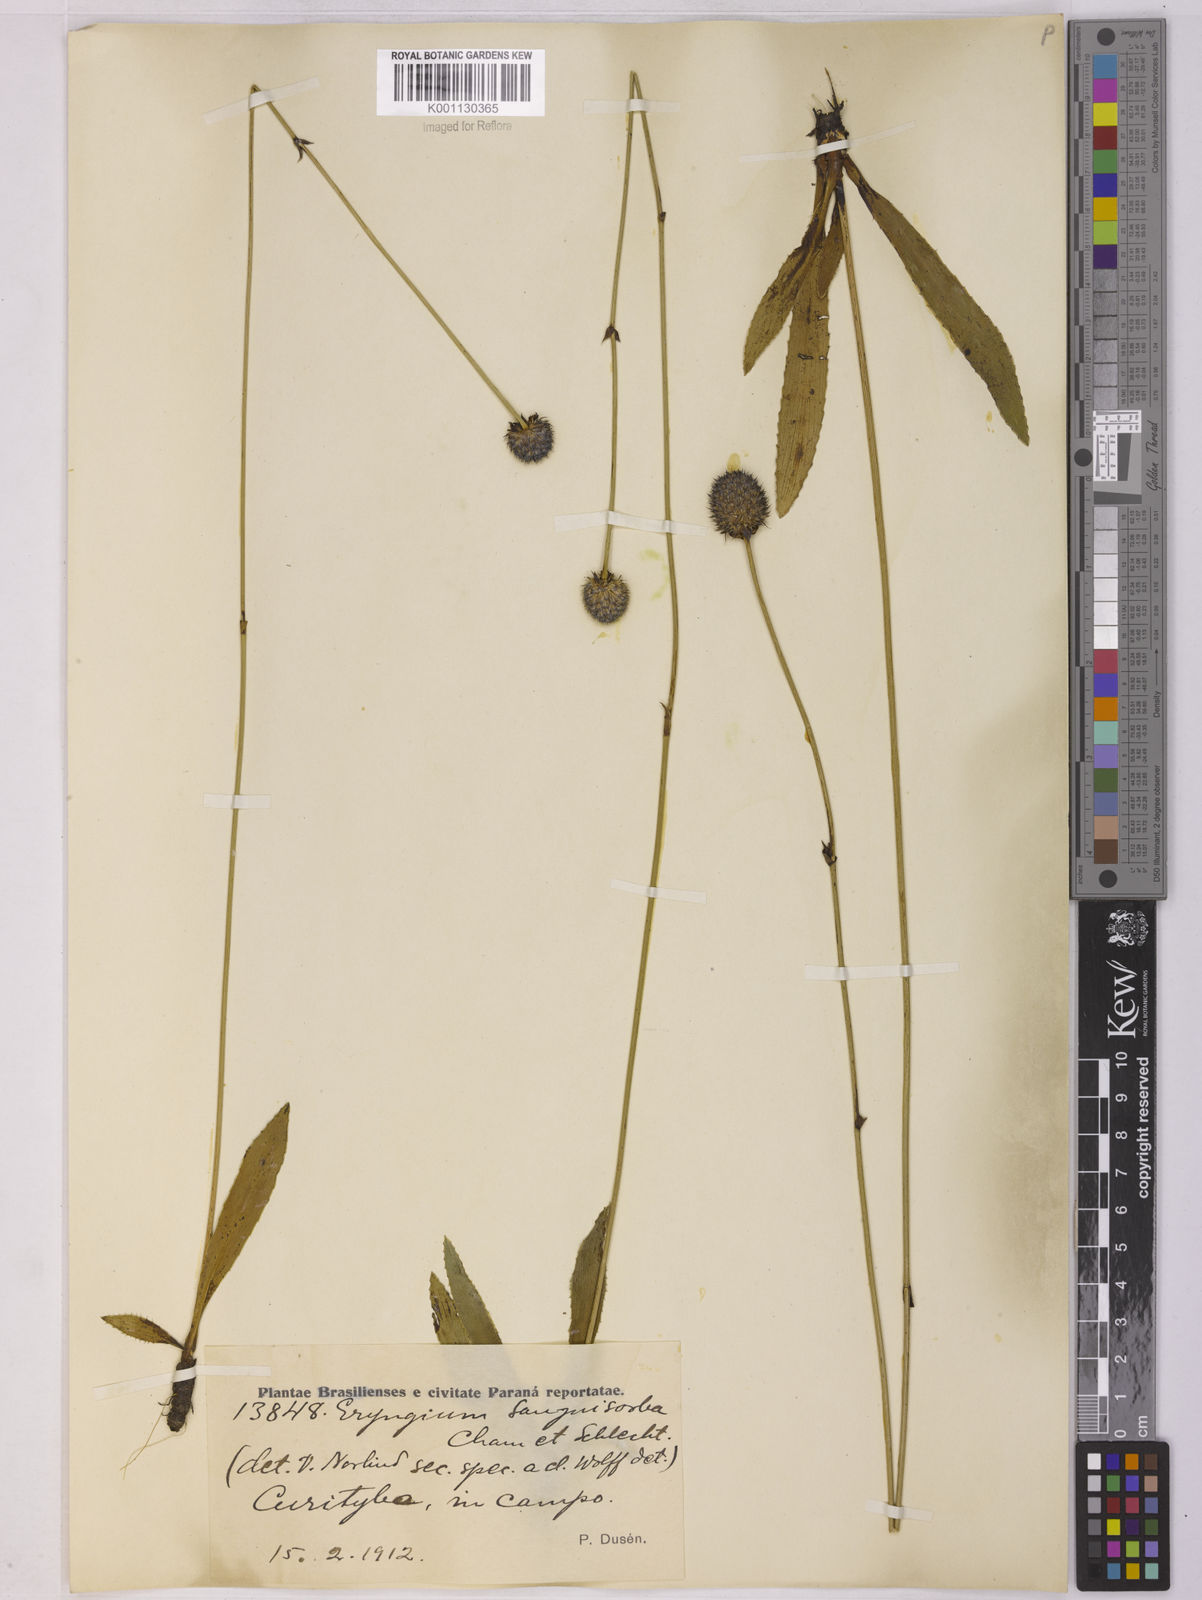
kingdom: Plantae
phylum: Tracheophyta
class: Magnoliopsida
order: Apiales
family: Apiaceae
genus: Eryngium
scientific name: Eryngium sanguisorba
